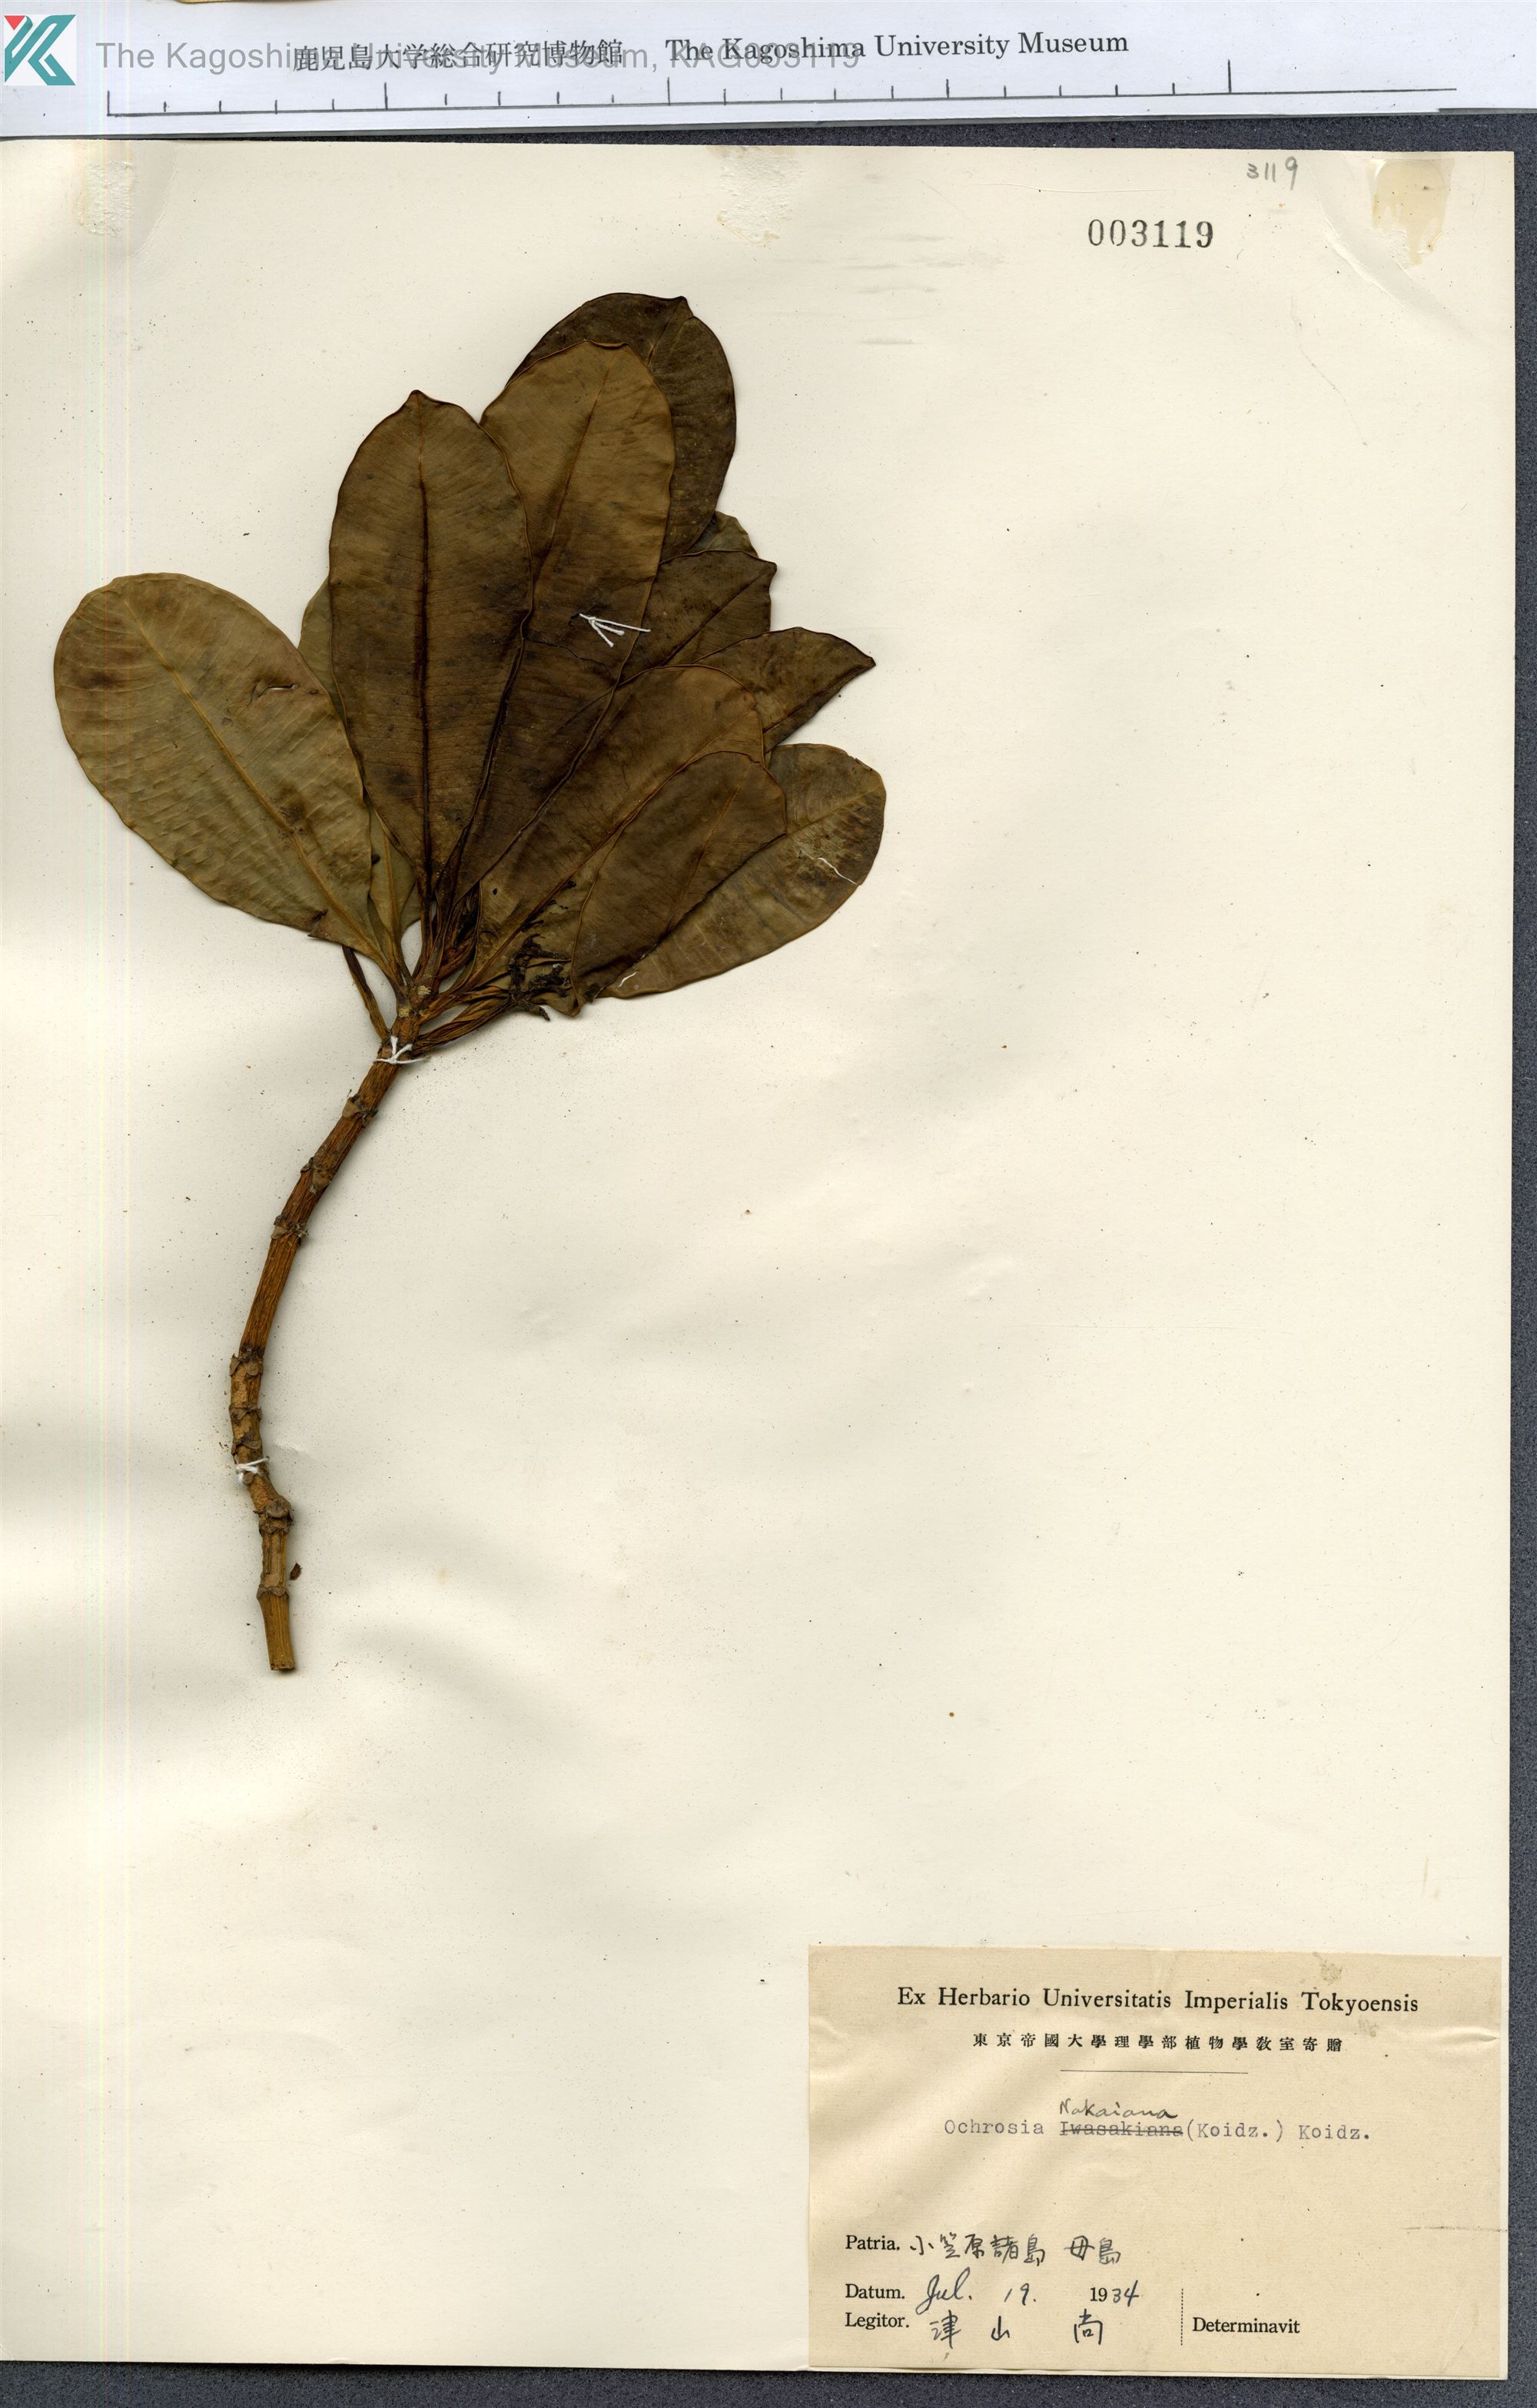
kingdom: Plantae
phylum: Tracheophyta
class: Magnoliopsida
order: Gentianales
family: Apocynaceae
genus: Ochrosia
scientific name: Ochrosia nakaiana
